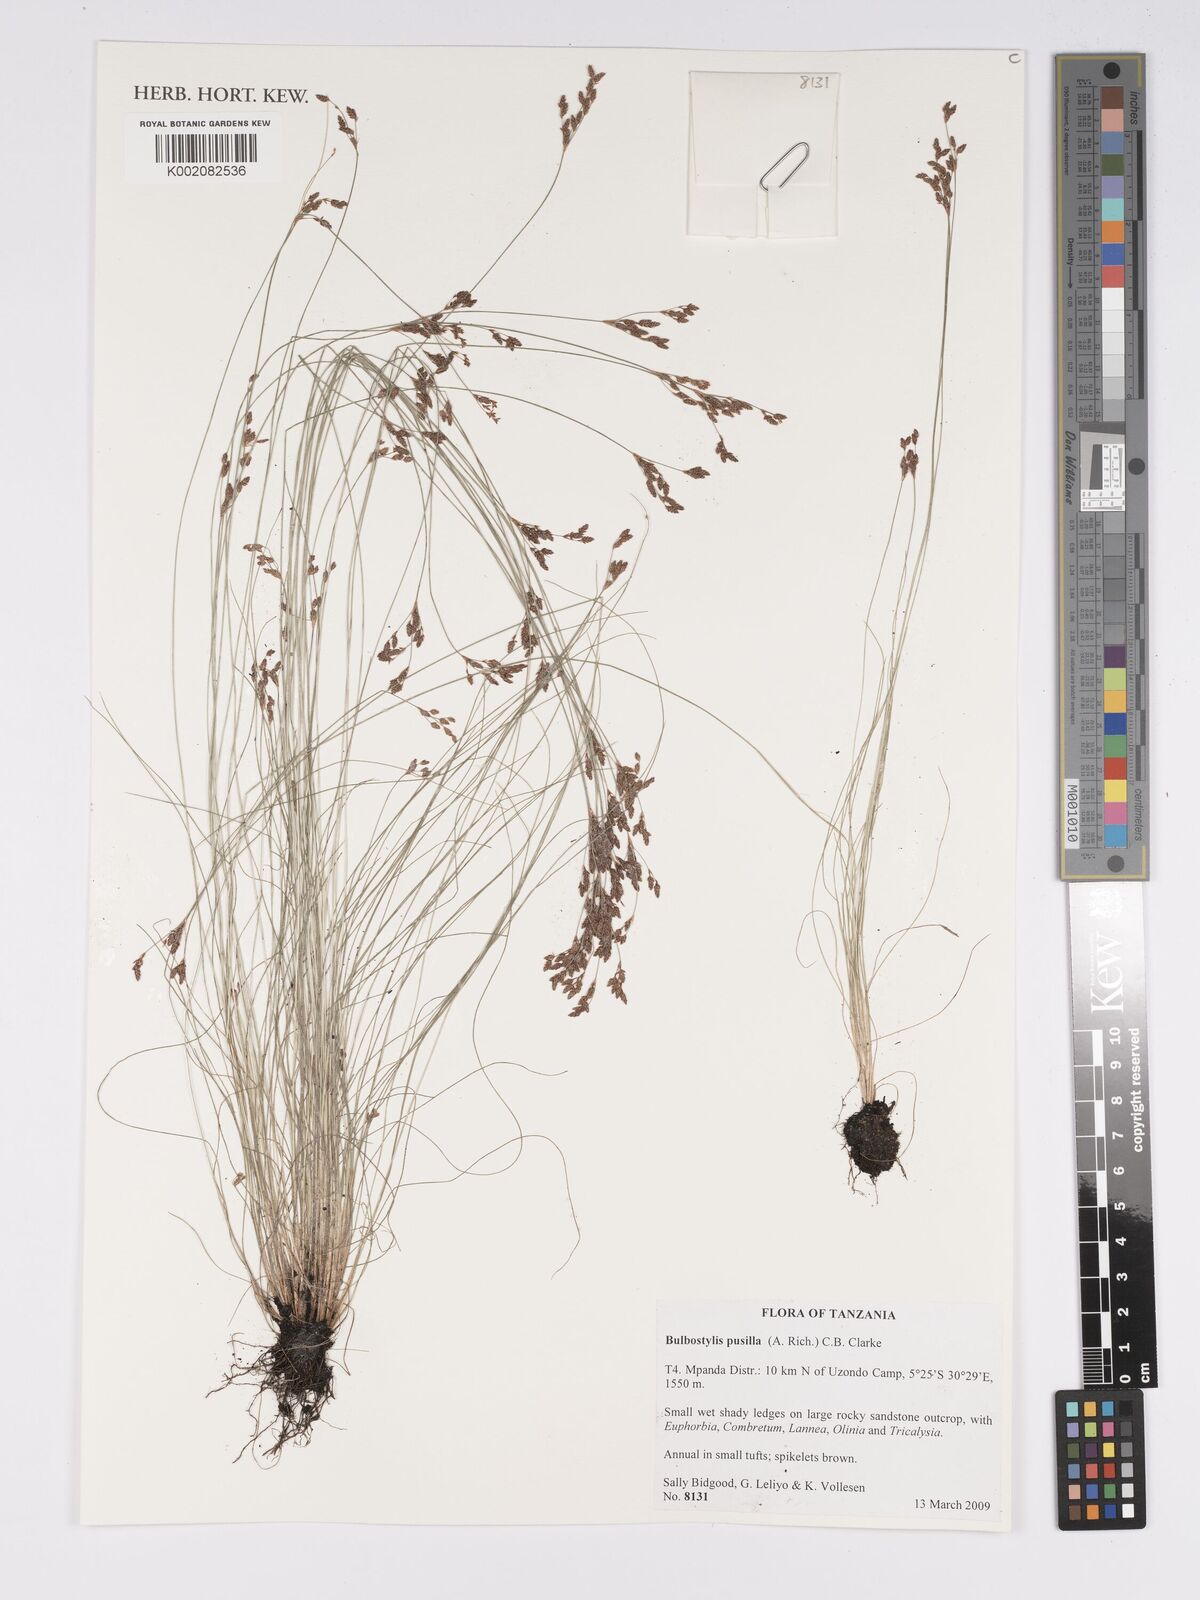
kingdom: Plantae
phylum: Tracheophyta
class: Liliopsida
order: Poales
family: Cyperaceae
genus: Bulbostylis
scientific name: Bulbostylis pusilla
